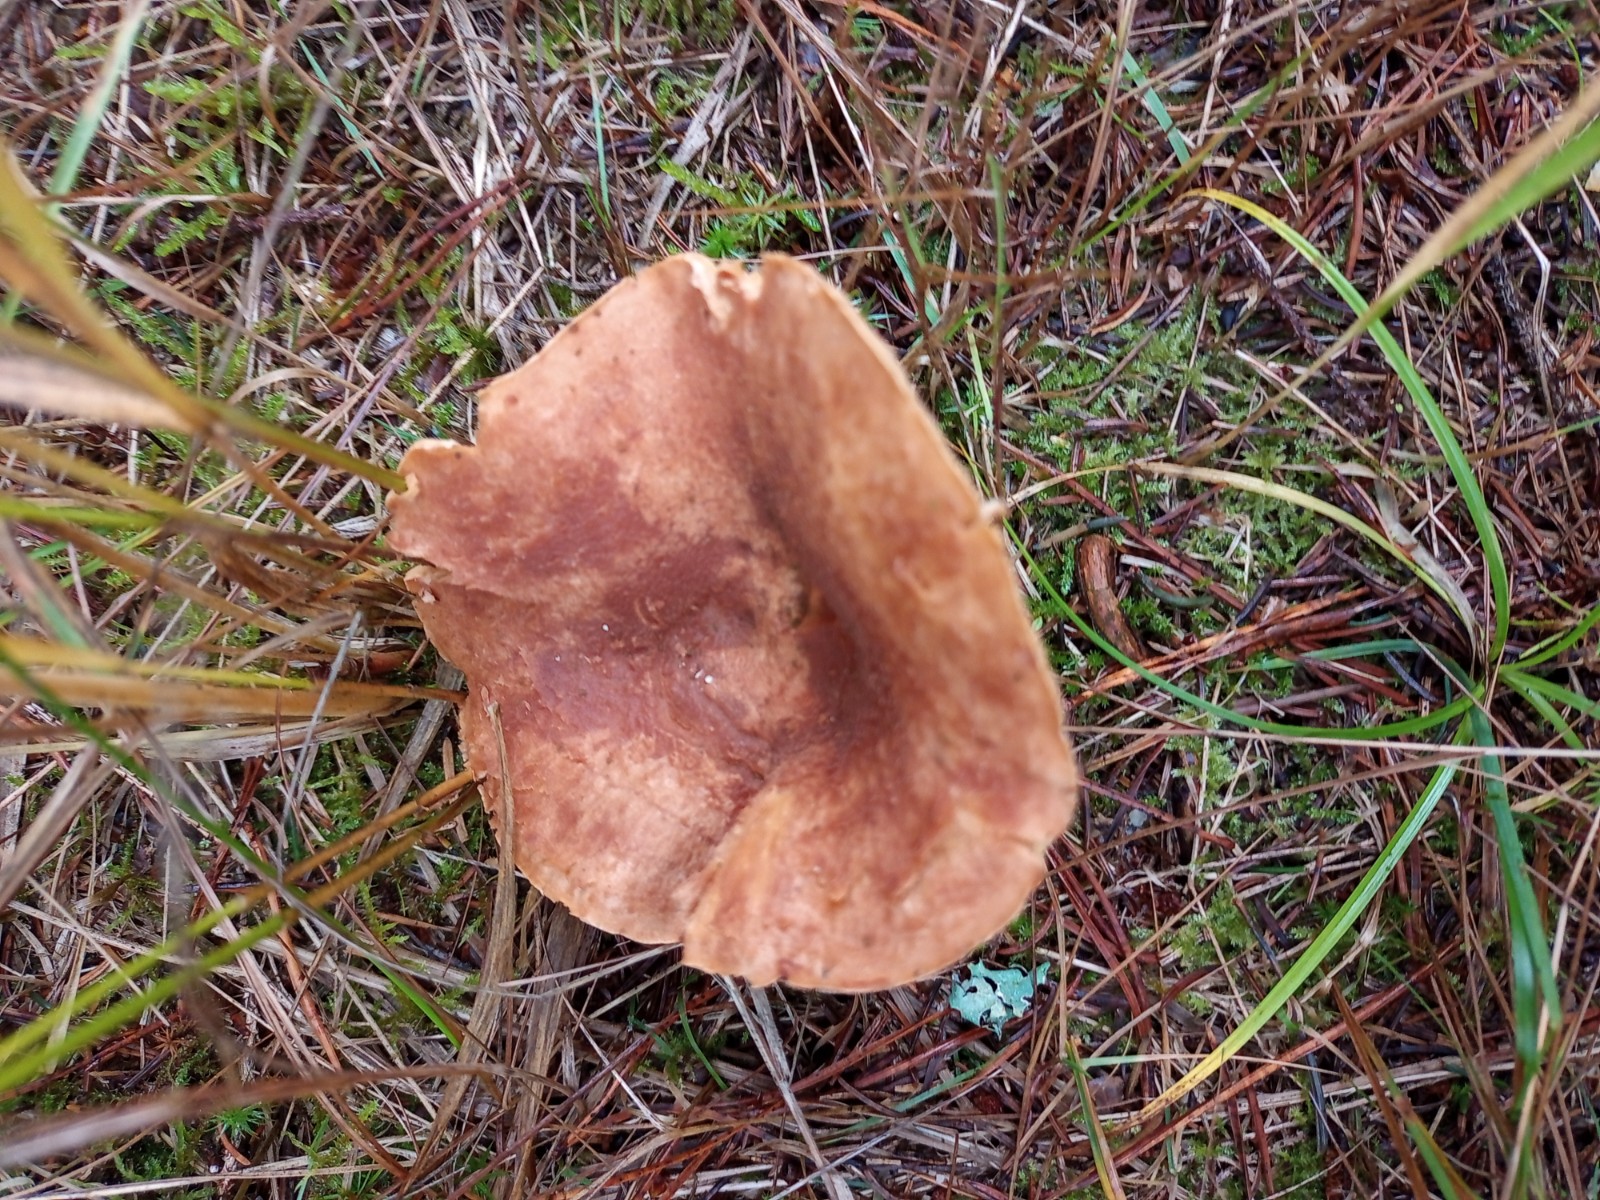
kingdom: Fungi
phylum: Basidiomycota
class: Agaricomycetes
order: Russulales
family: Russulaceae
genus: Lactarius
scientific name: Lactarius
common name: mælkehat
